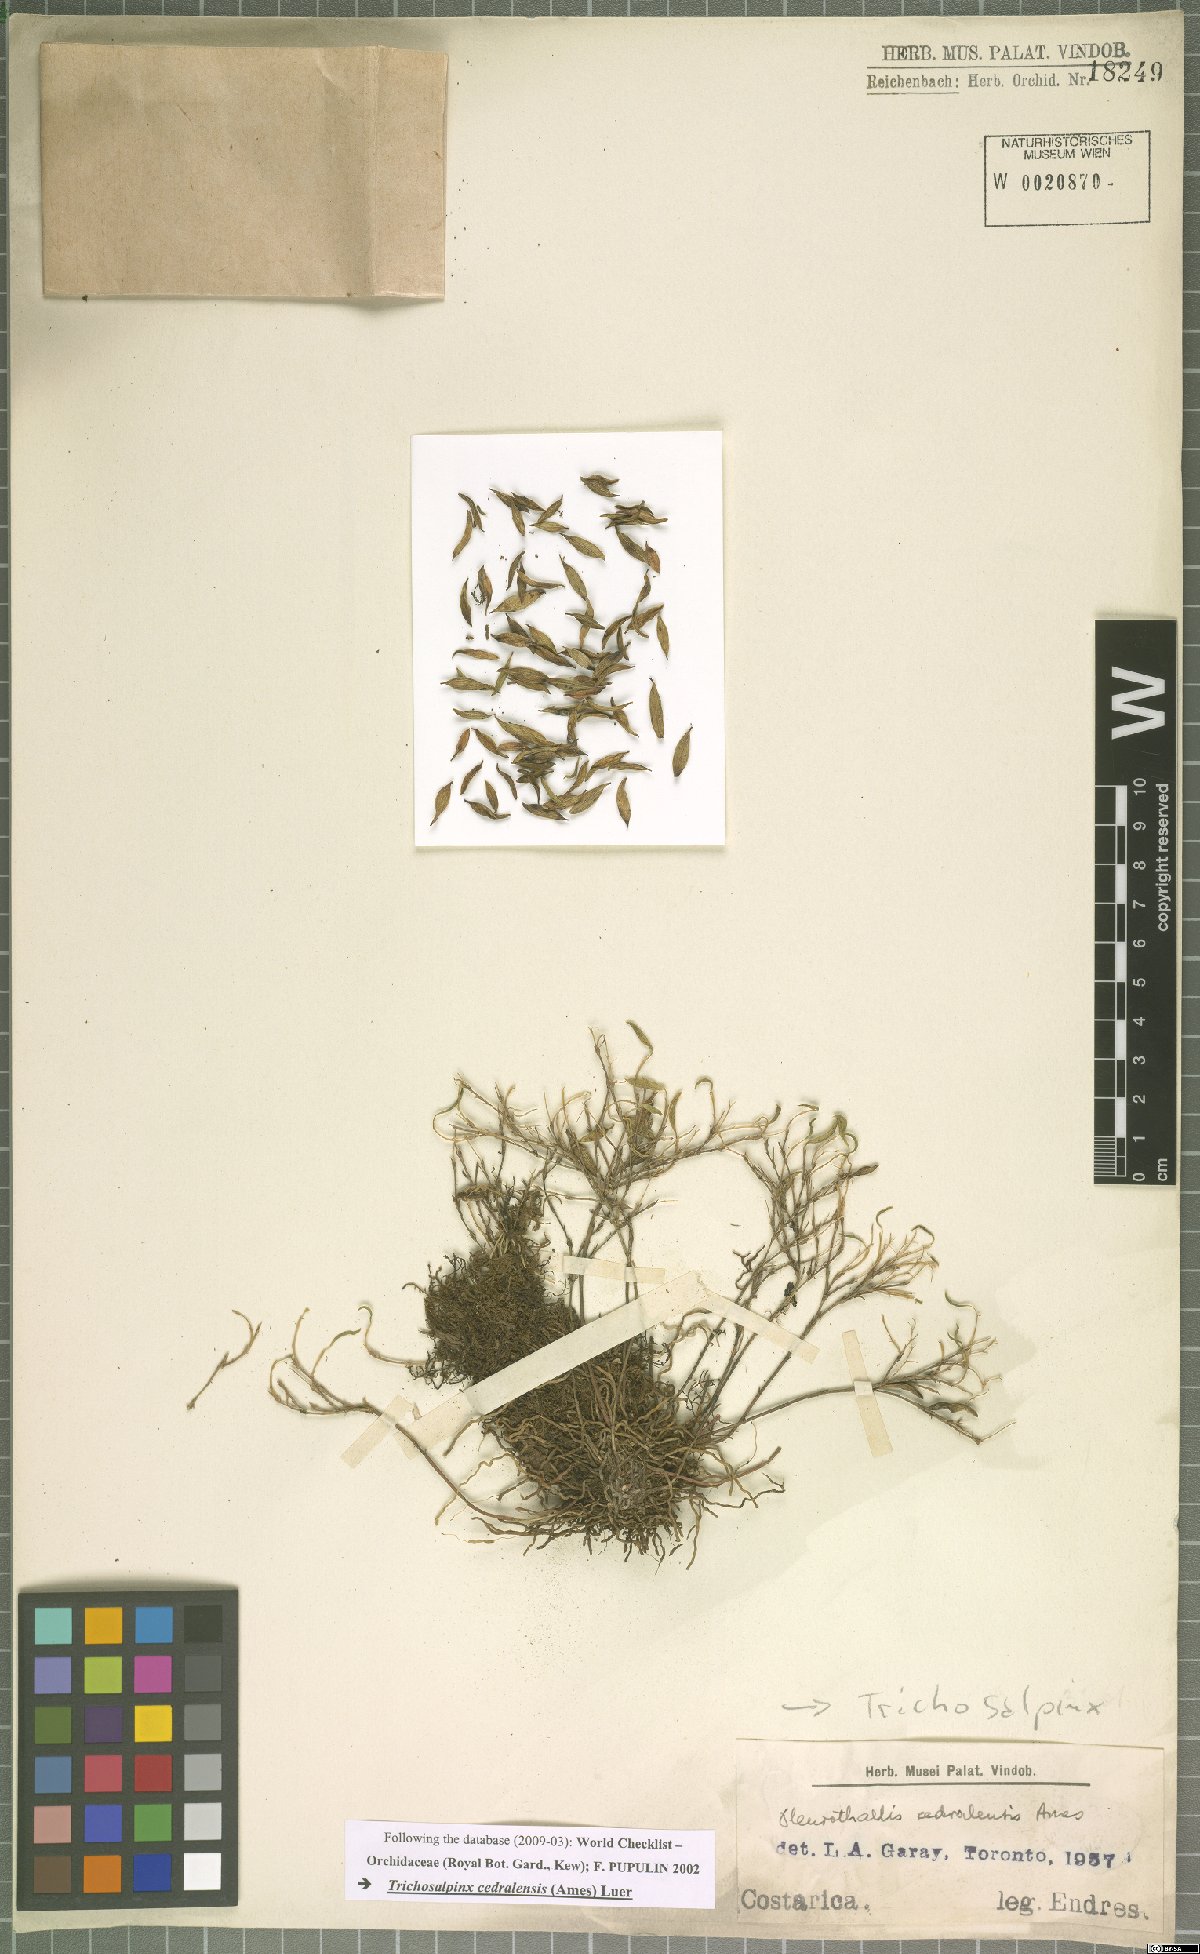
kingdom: Plantae
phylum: Tracheophyta
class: Liliopsida
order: Asparagales
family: Orchidaceae
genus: Trichosalpinx
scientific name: Trichosalpinx cedralensis
